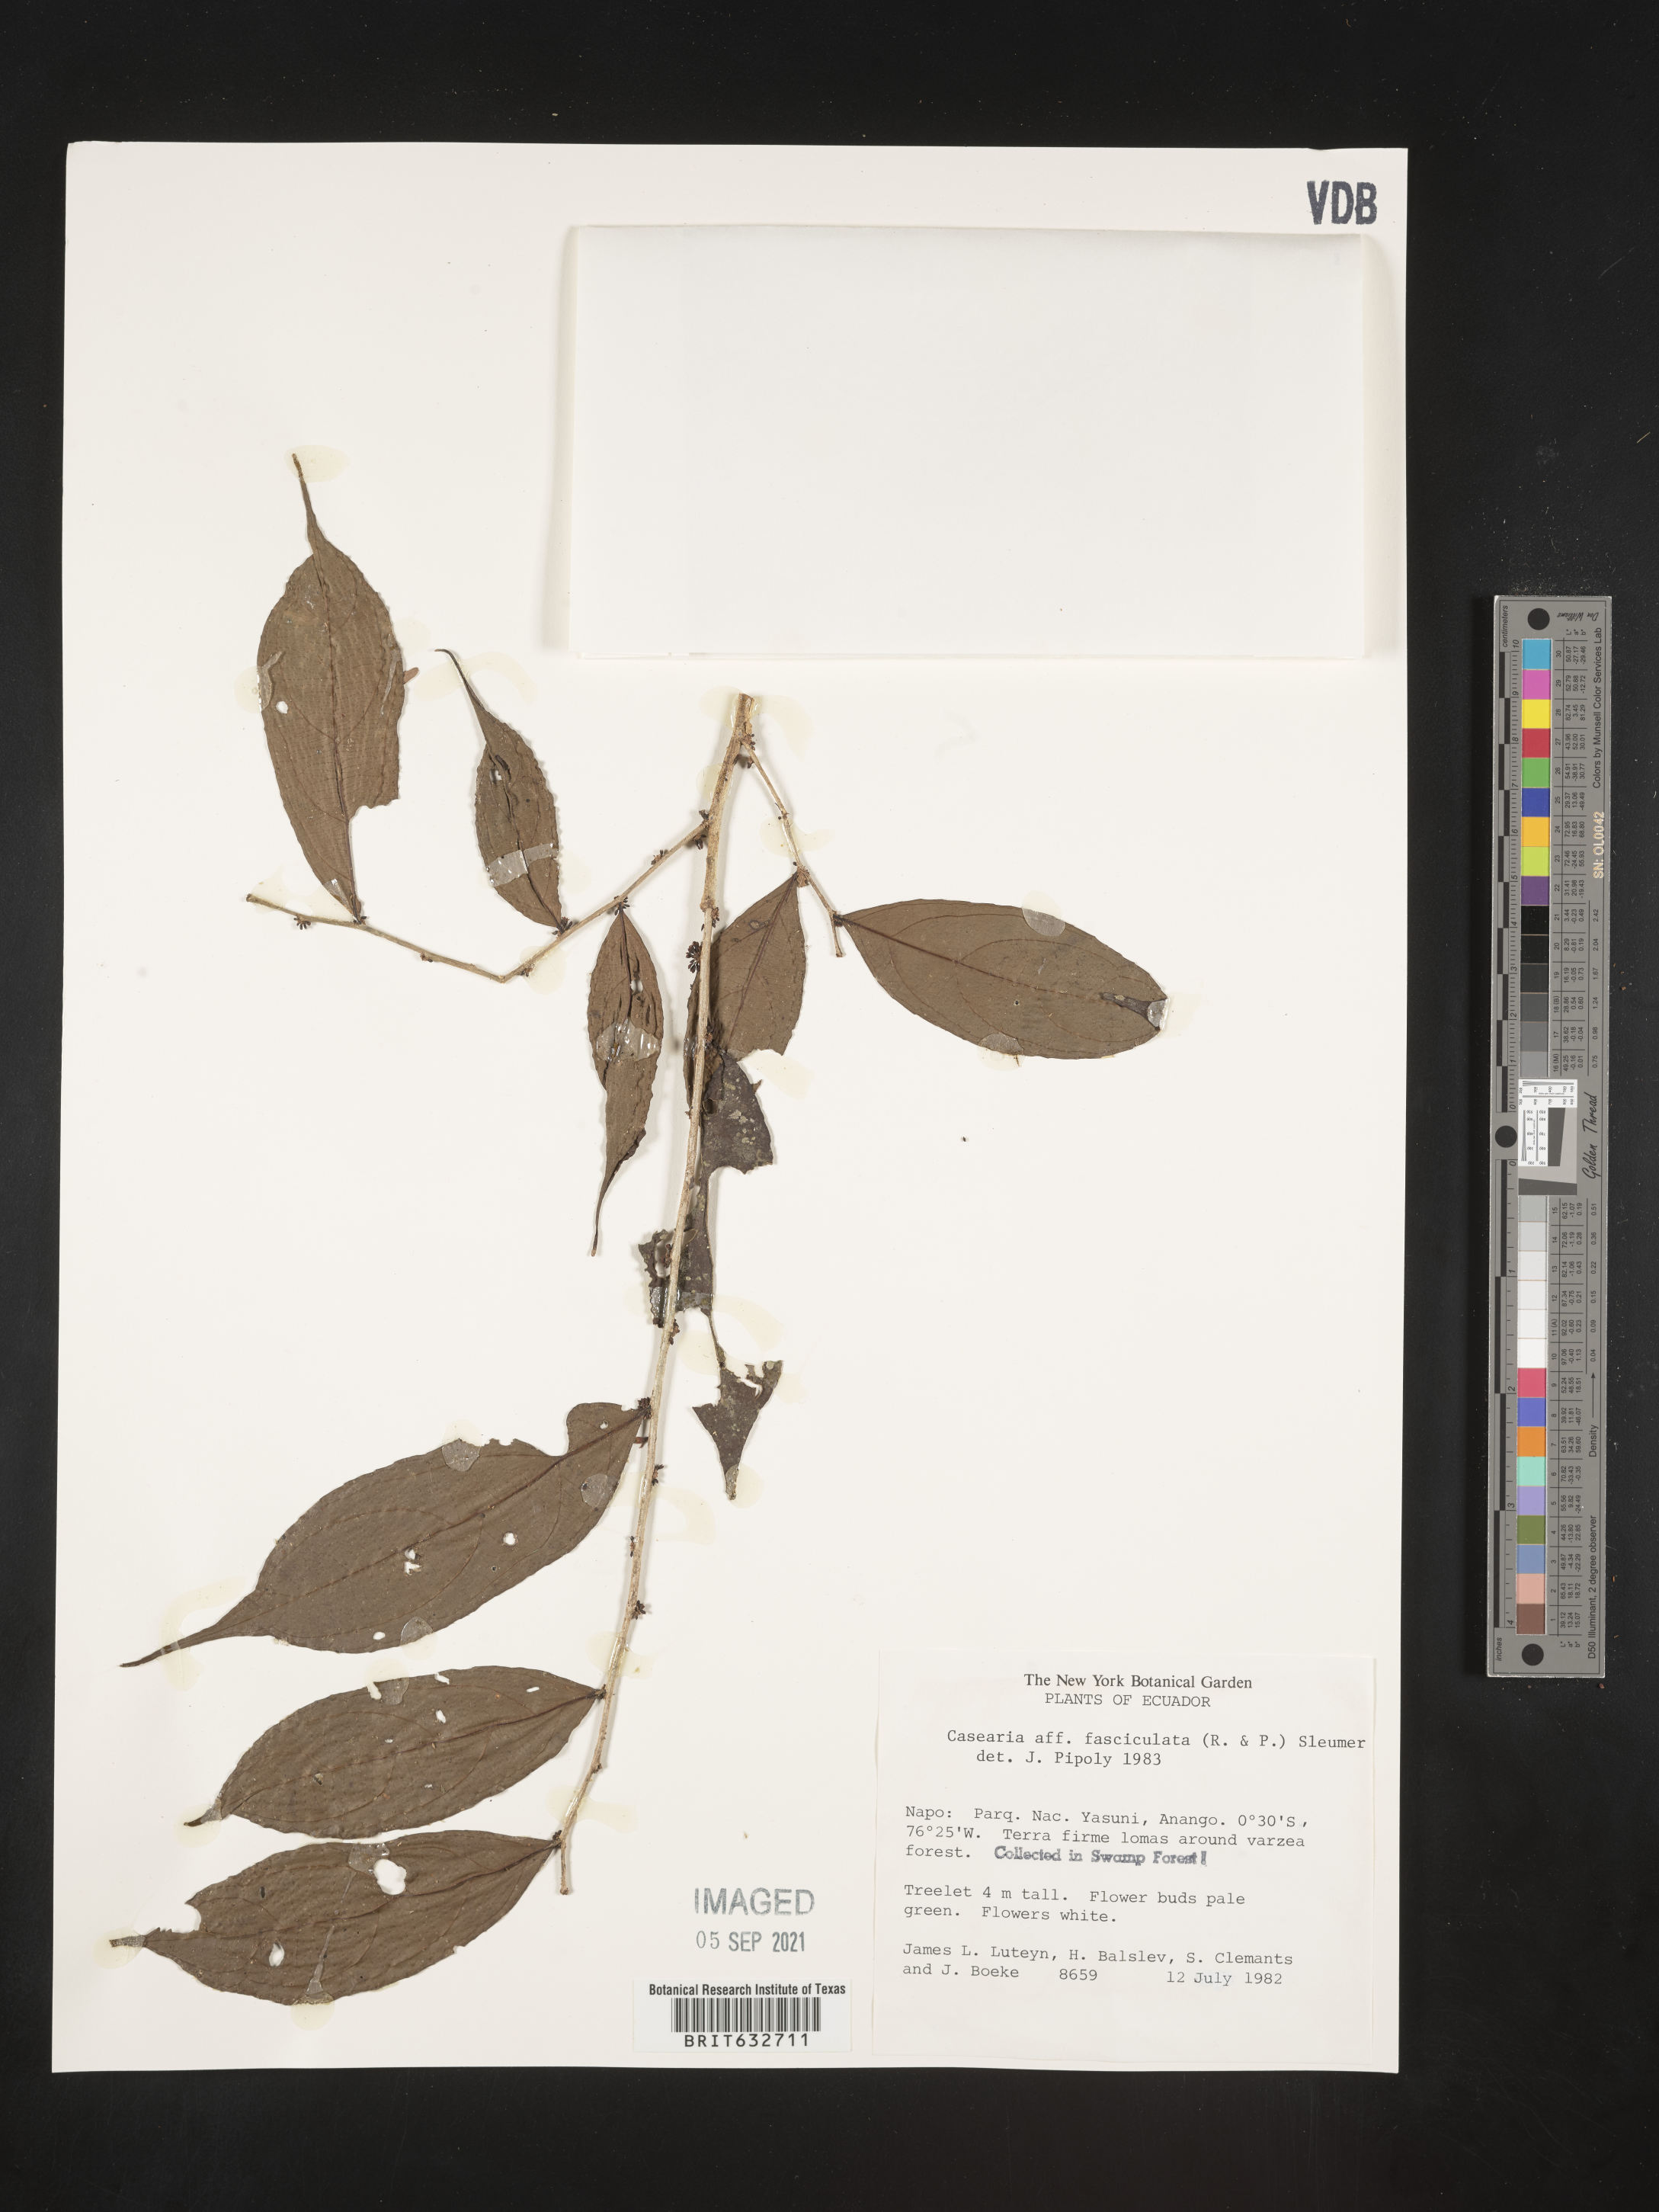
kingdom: Plantae
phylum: Tracheophyta
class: Magnoliopsida
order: Malpighiales
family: Salicaceae
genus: Casearia
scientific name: Casearia
